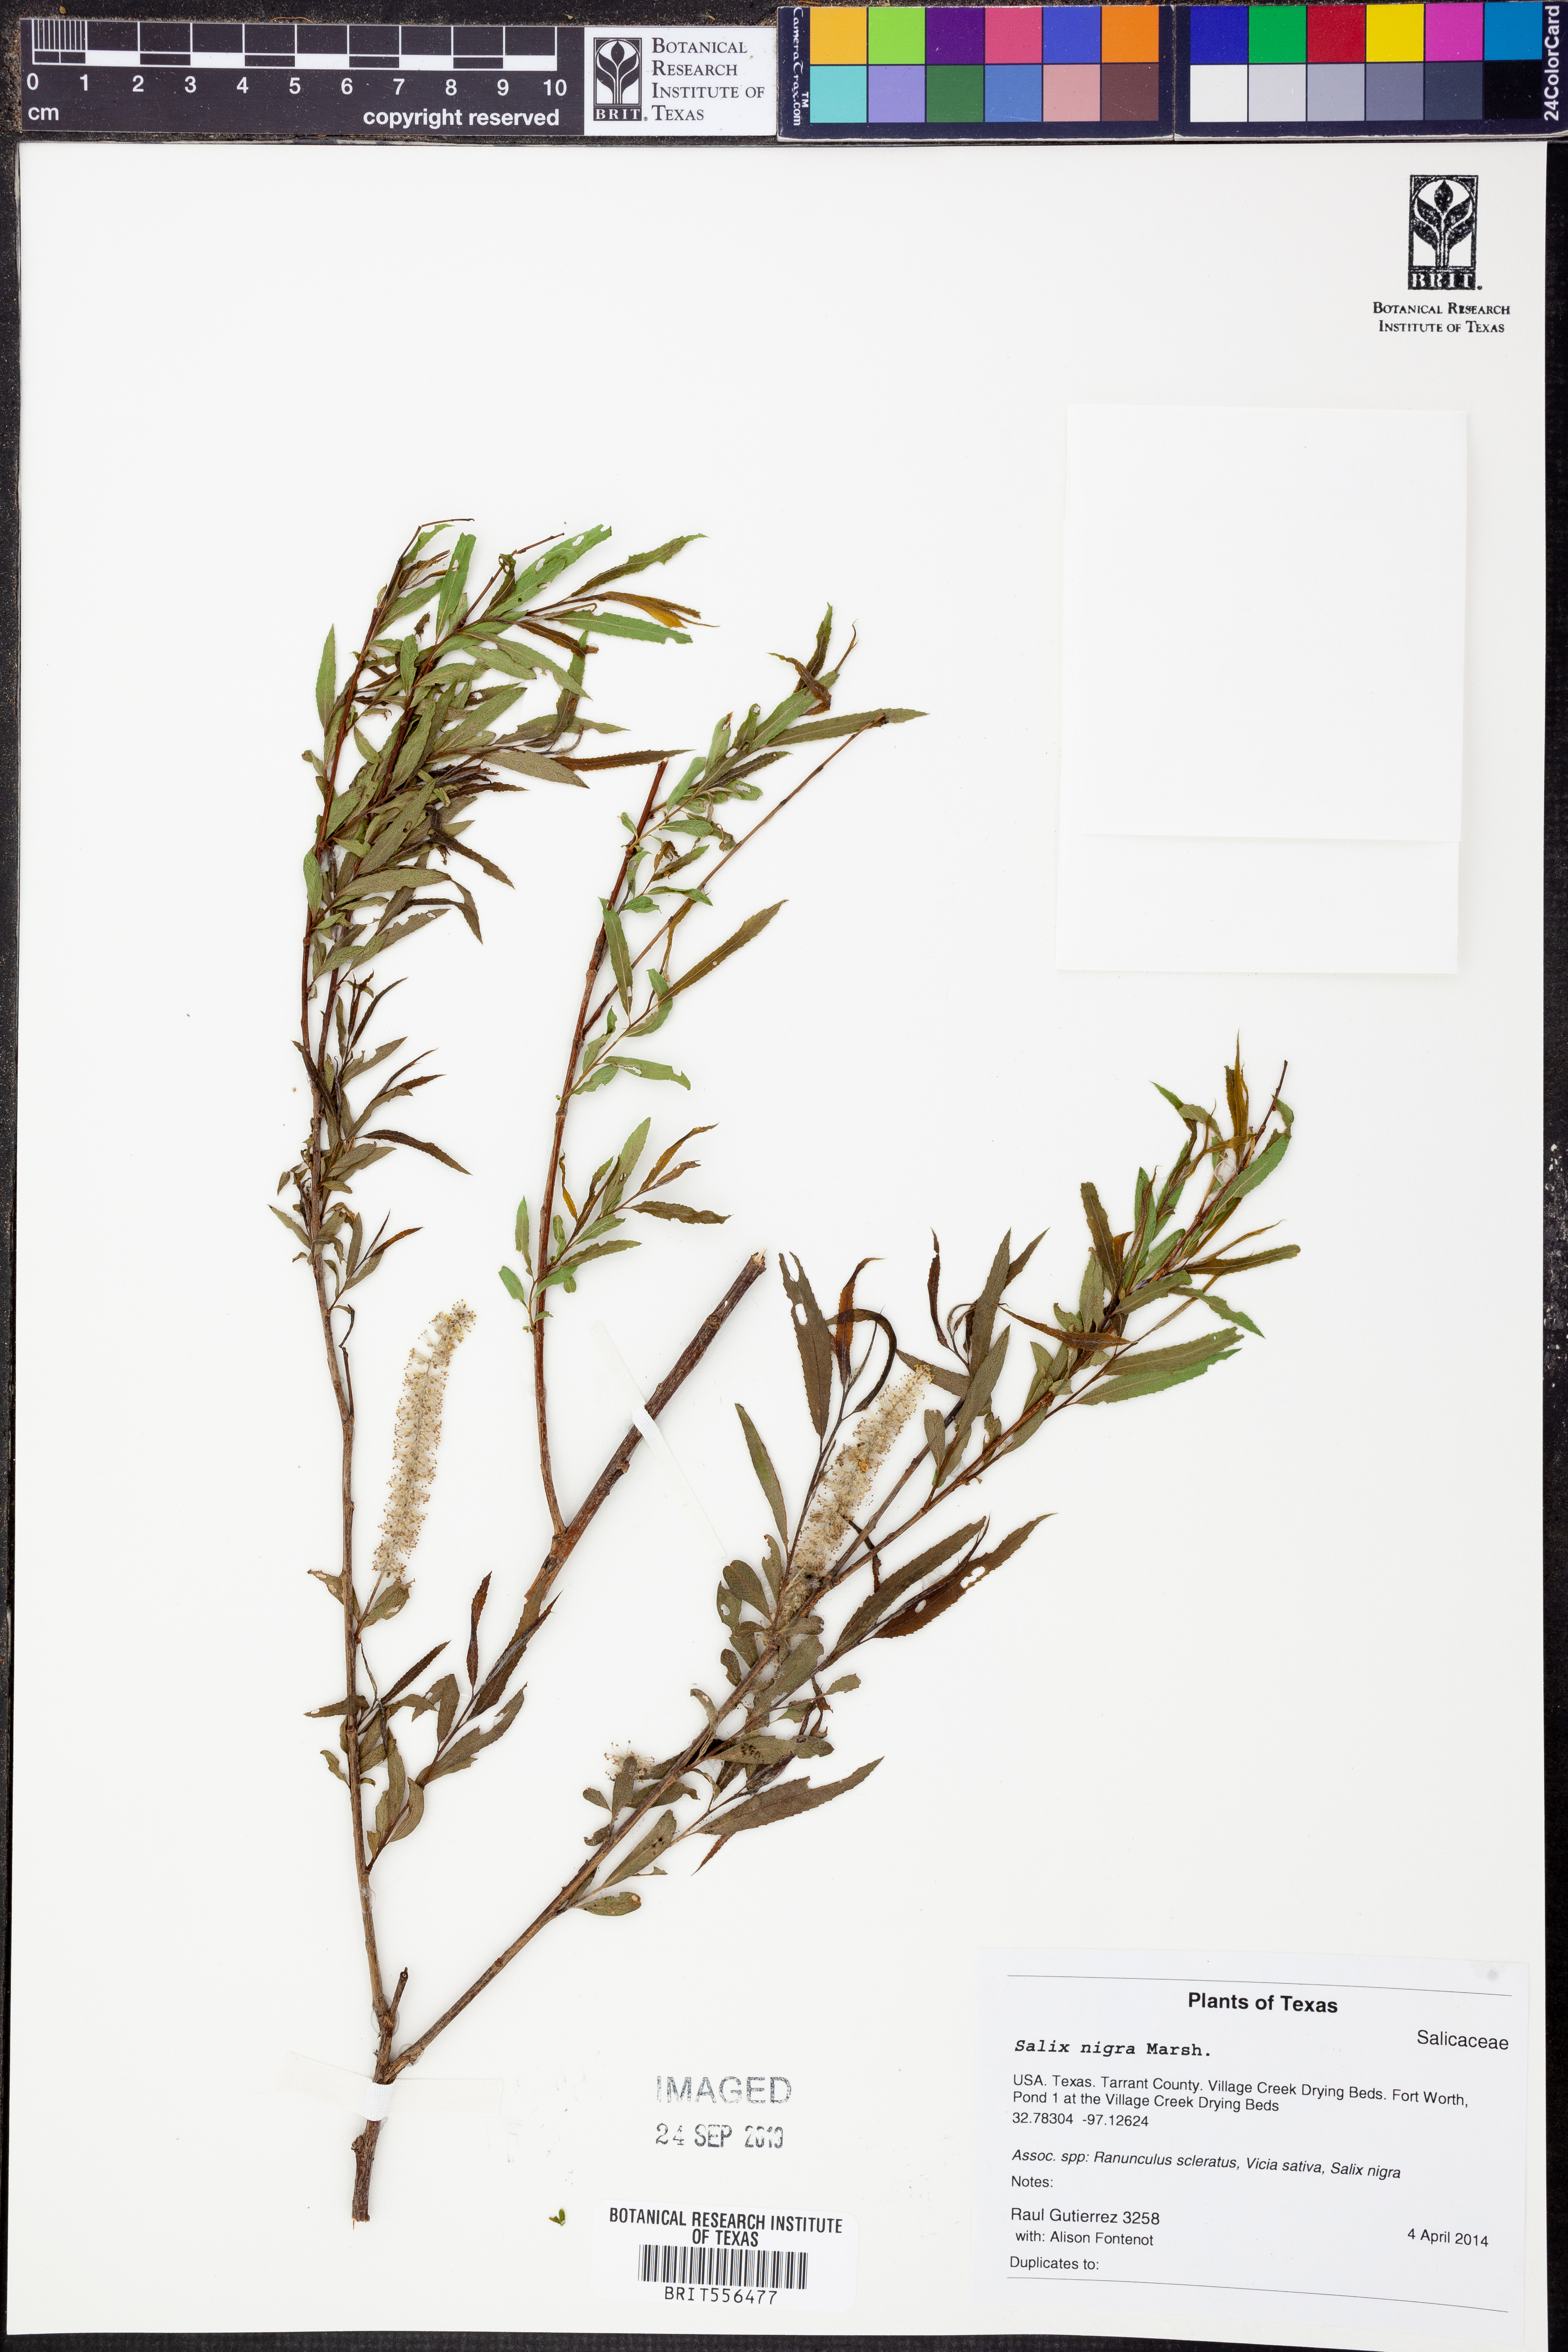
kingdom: Plantae
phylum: Tracheophyta
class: Magnoliopsida
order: Malpighiales
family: Salicaceae
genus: Salix
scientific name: Salix nigra
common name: Black willow
